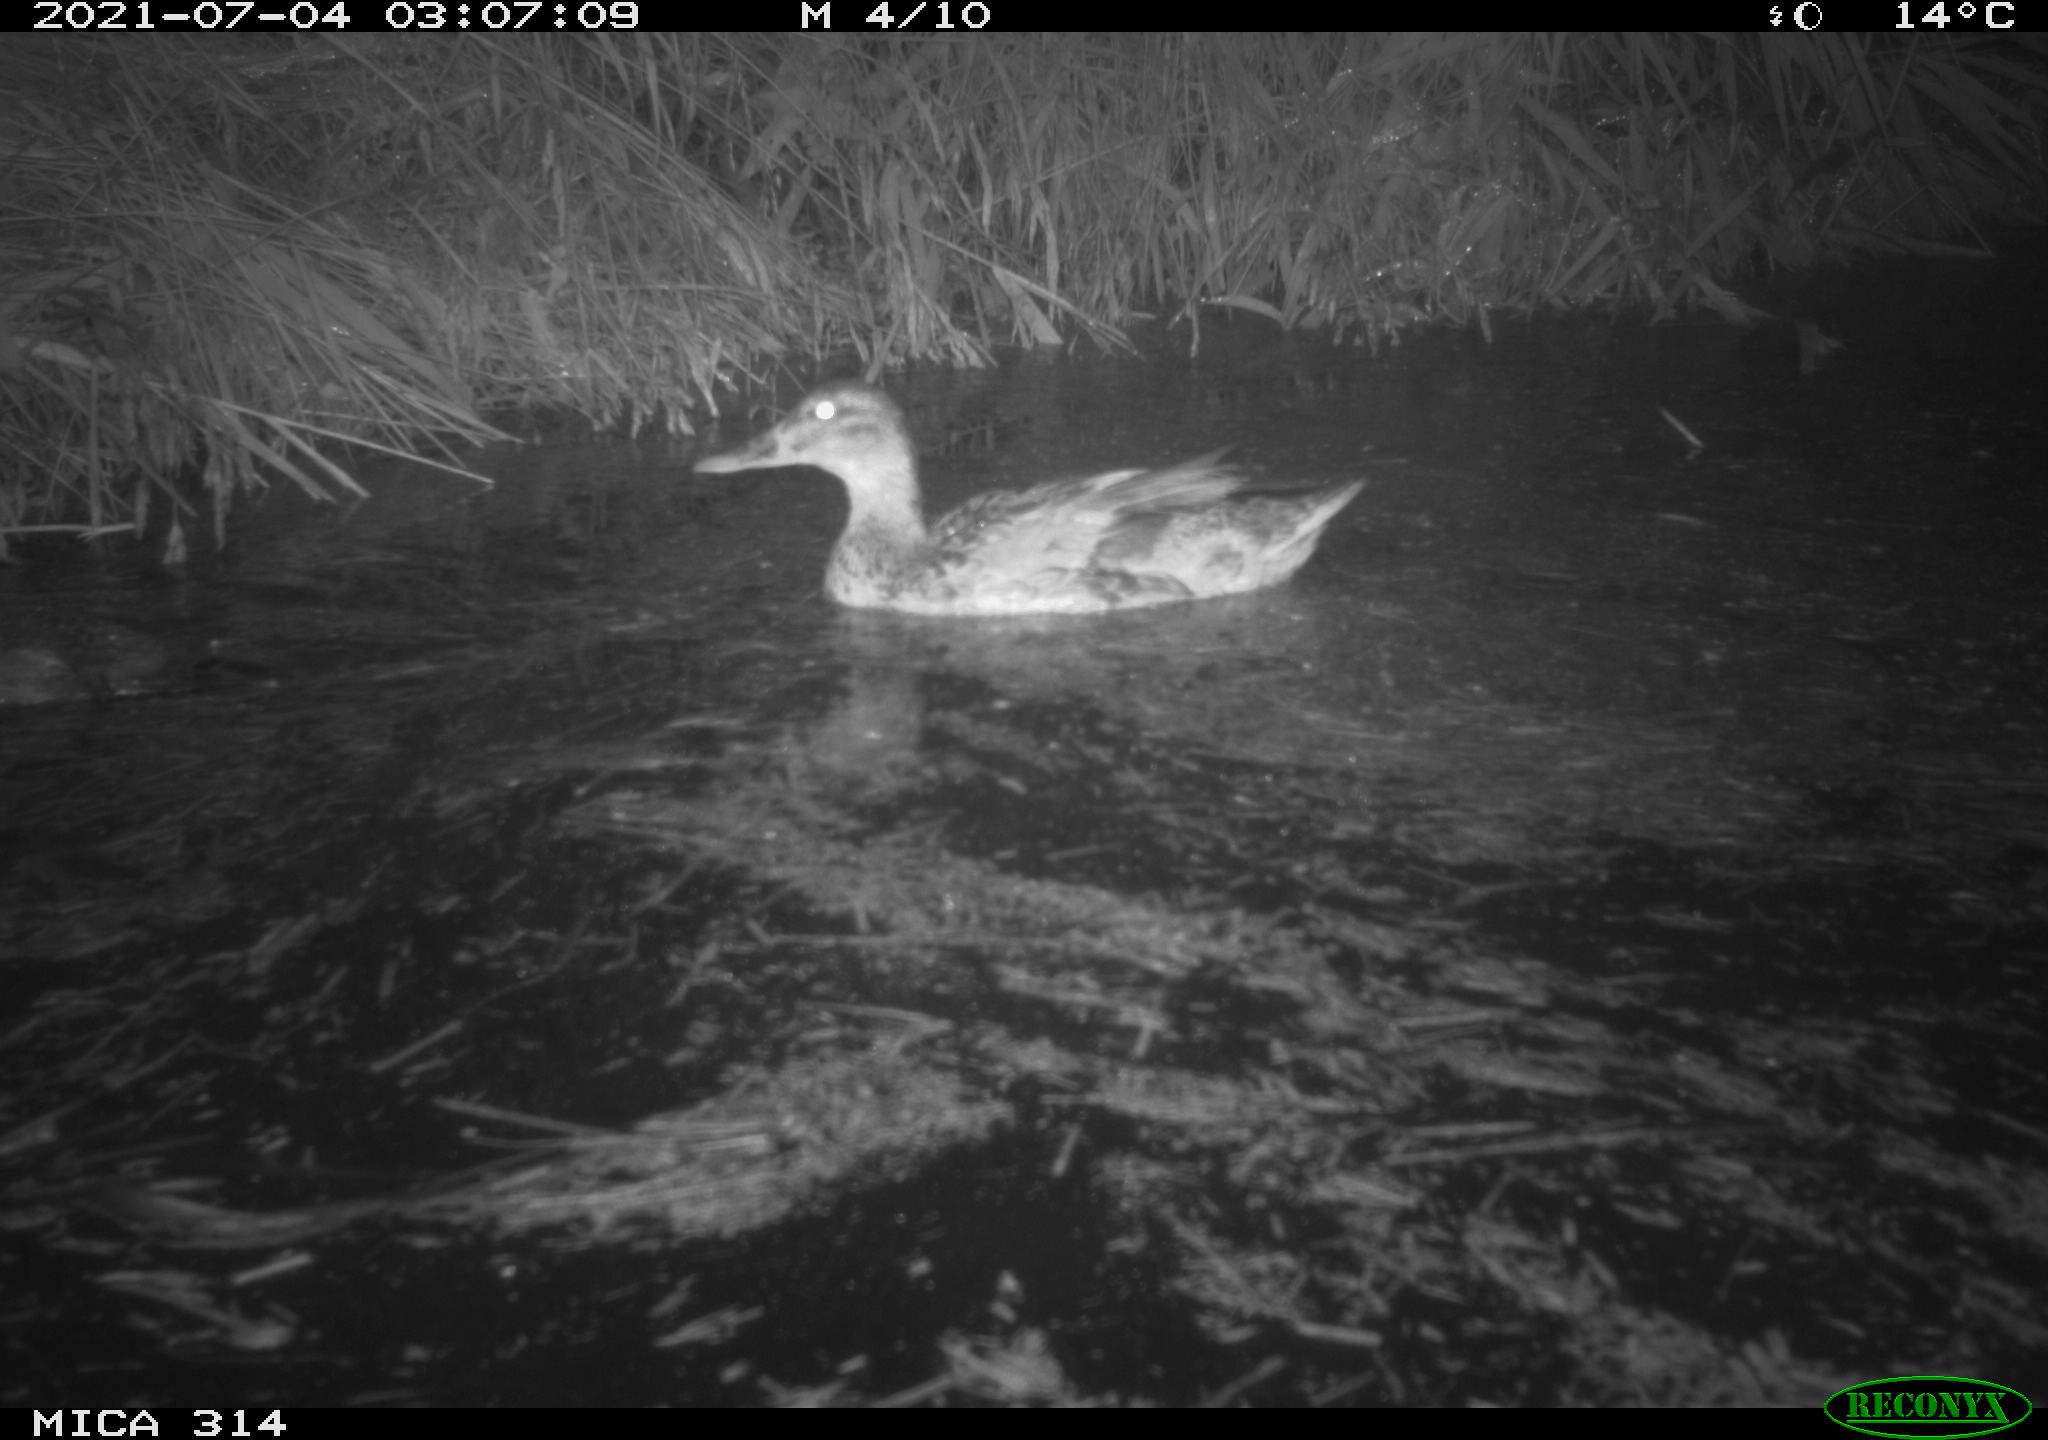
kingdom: Animalia
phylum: Chordata
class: Aves
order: Anseriformes
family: Anatidae
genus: Mareca
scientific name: Mareca strepera
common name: Gadwall
